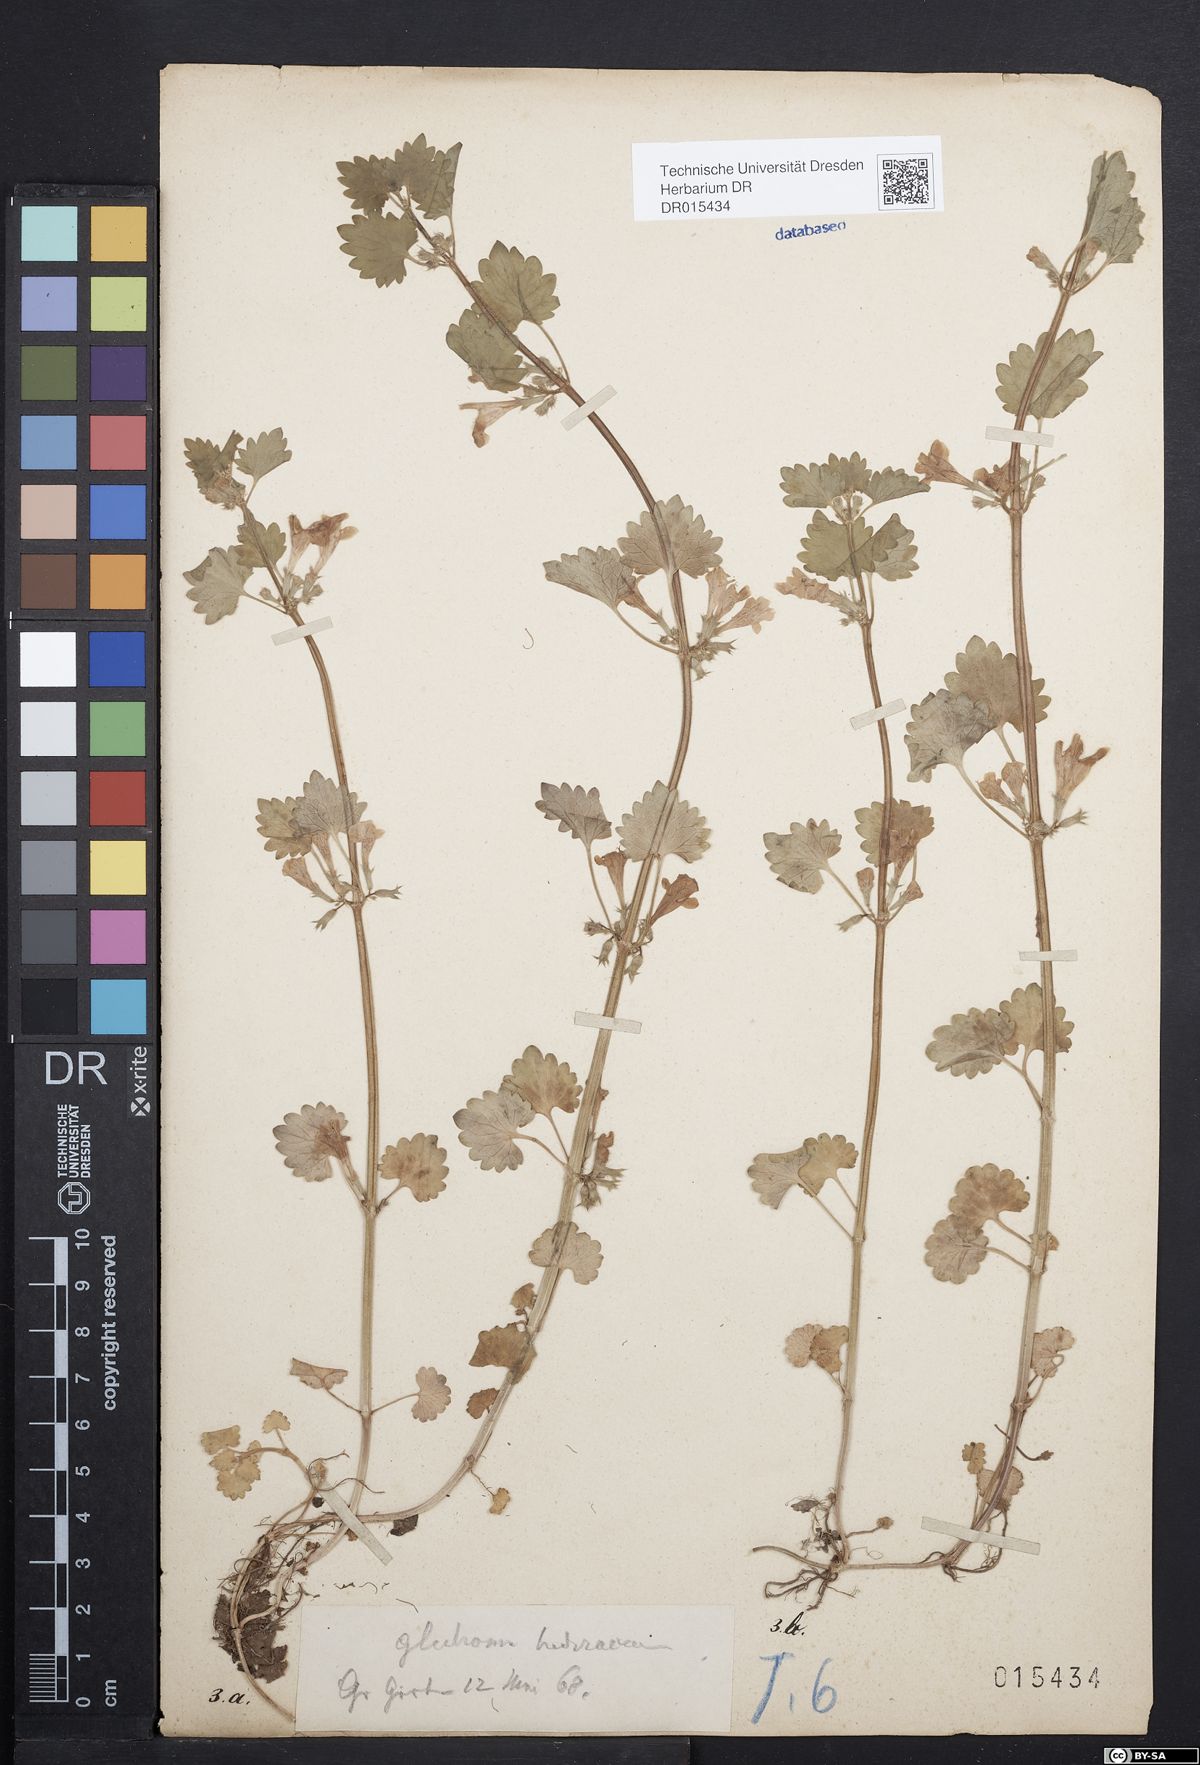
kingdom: Plantae
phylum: Tracheophyta
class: Magnoliopsida
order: Lamiales
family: Lamiaceae
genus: Glechoma
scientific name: Glechoma hederacea
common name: Ground ivy
